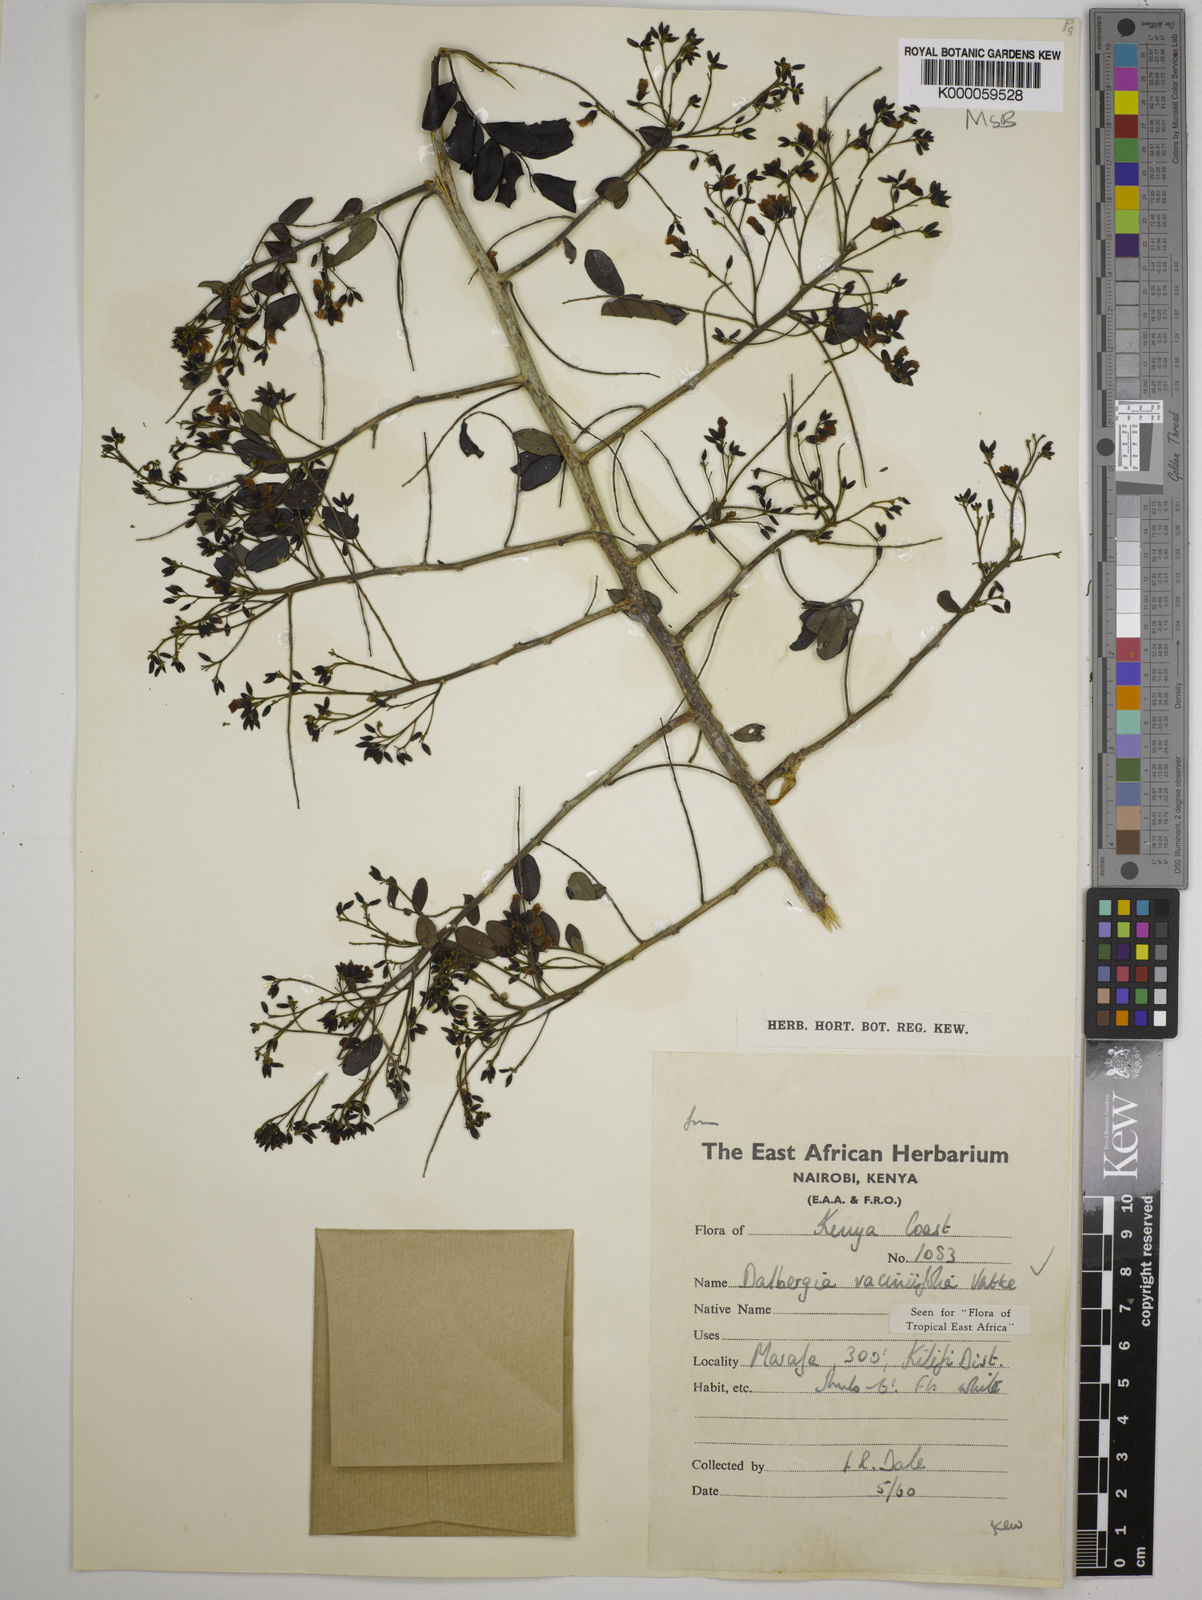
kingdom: Plantae
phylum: Tracheophyta
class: Magnoliopsida
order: Fabales
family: Fabaceae
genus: Dalbergia
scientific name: Dalbergia vacciniifolia
